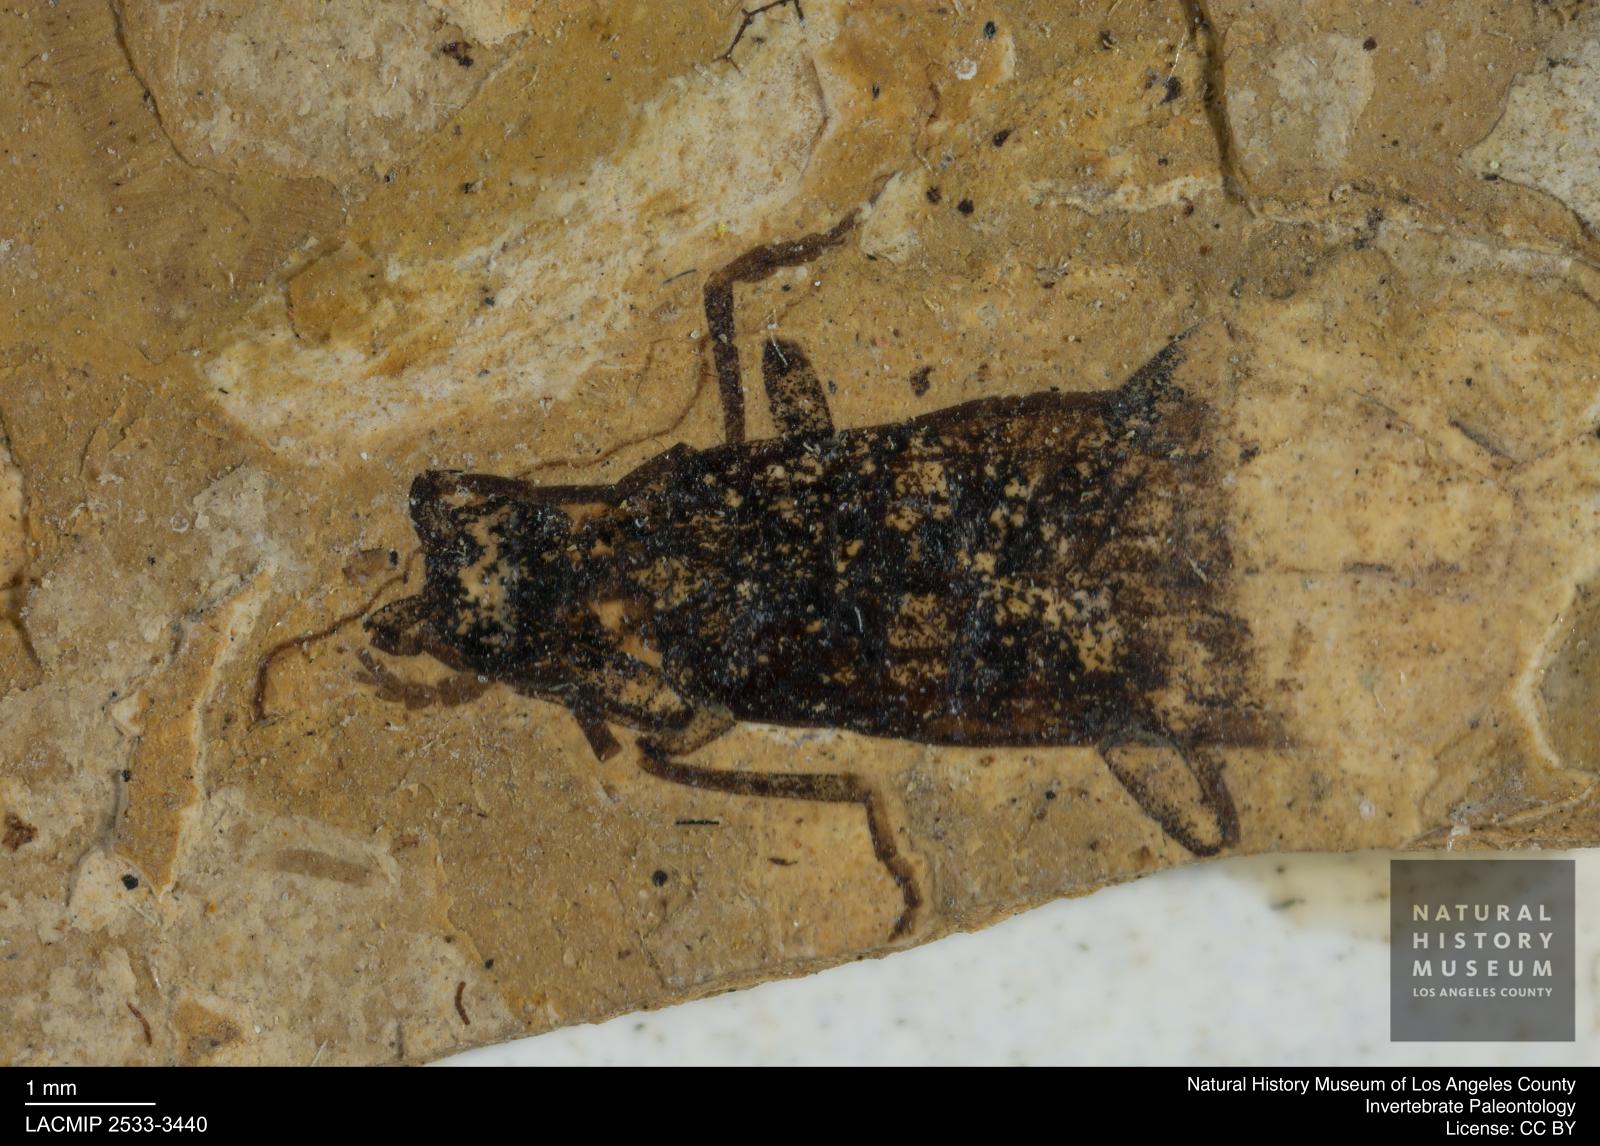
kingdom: Animalia
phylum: Arthropoda
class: Insecta
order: Coleoptera
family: Cantharidae
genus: Cantharis
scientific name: Cantharis rottensis
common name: Solider beetle
